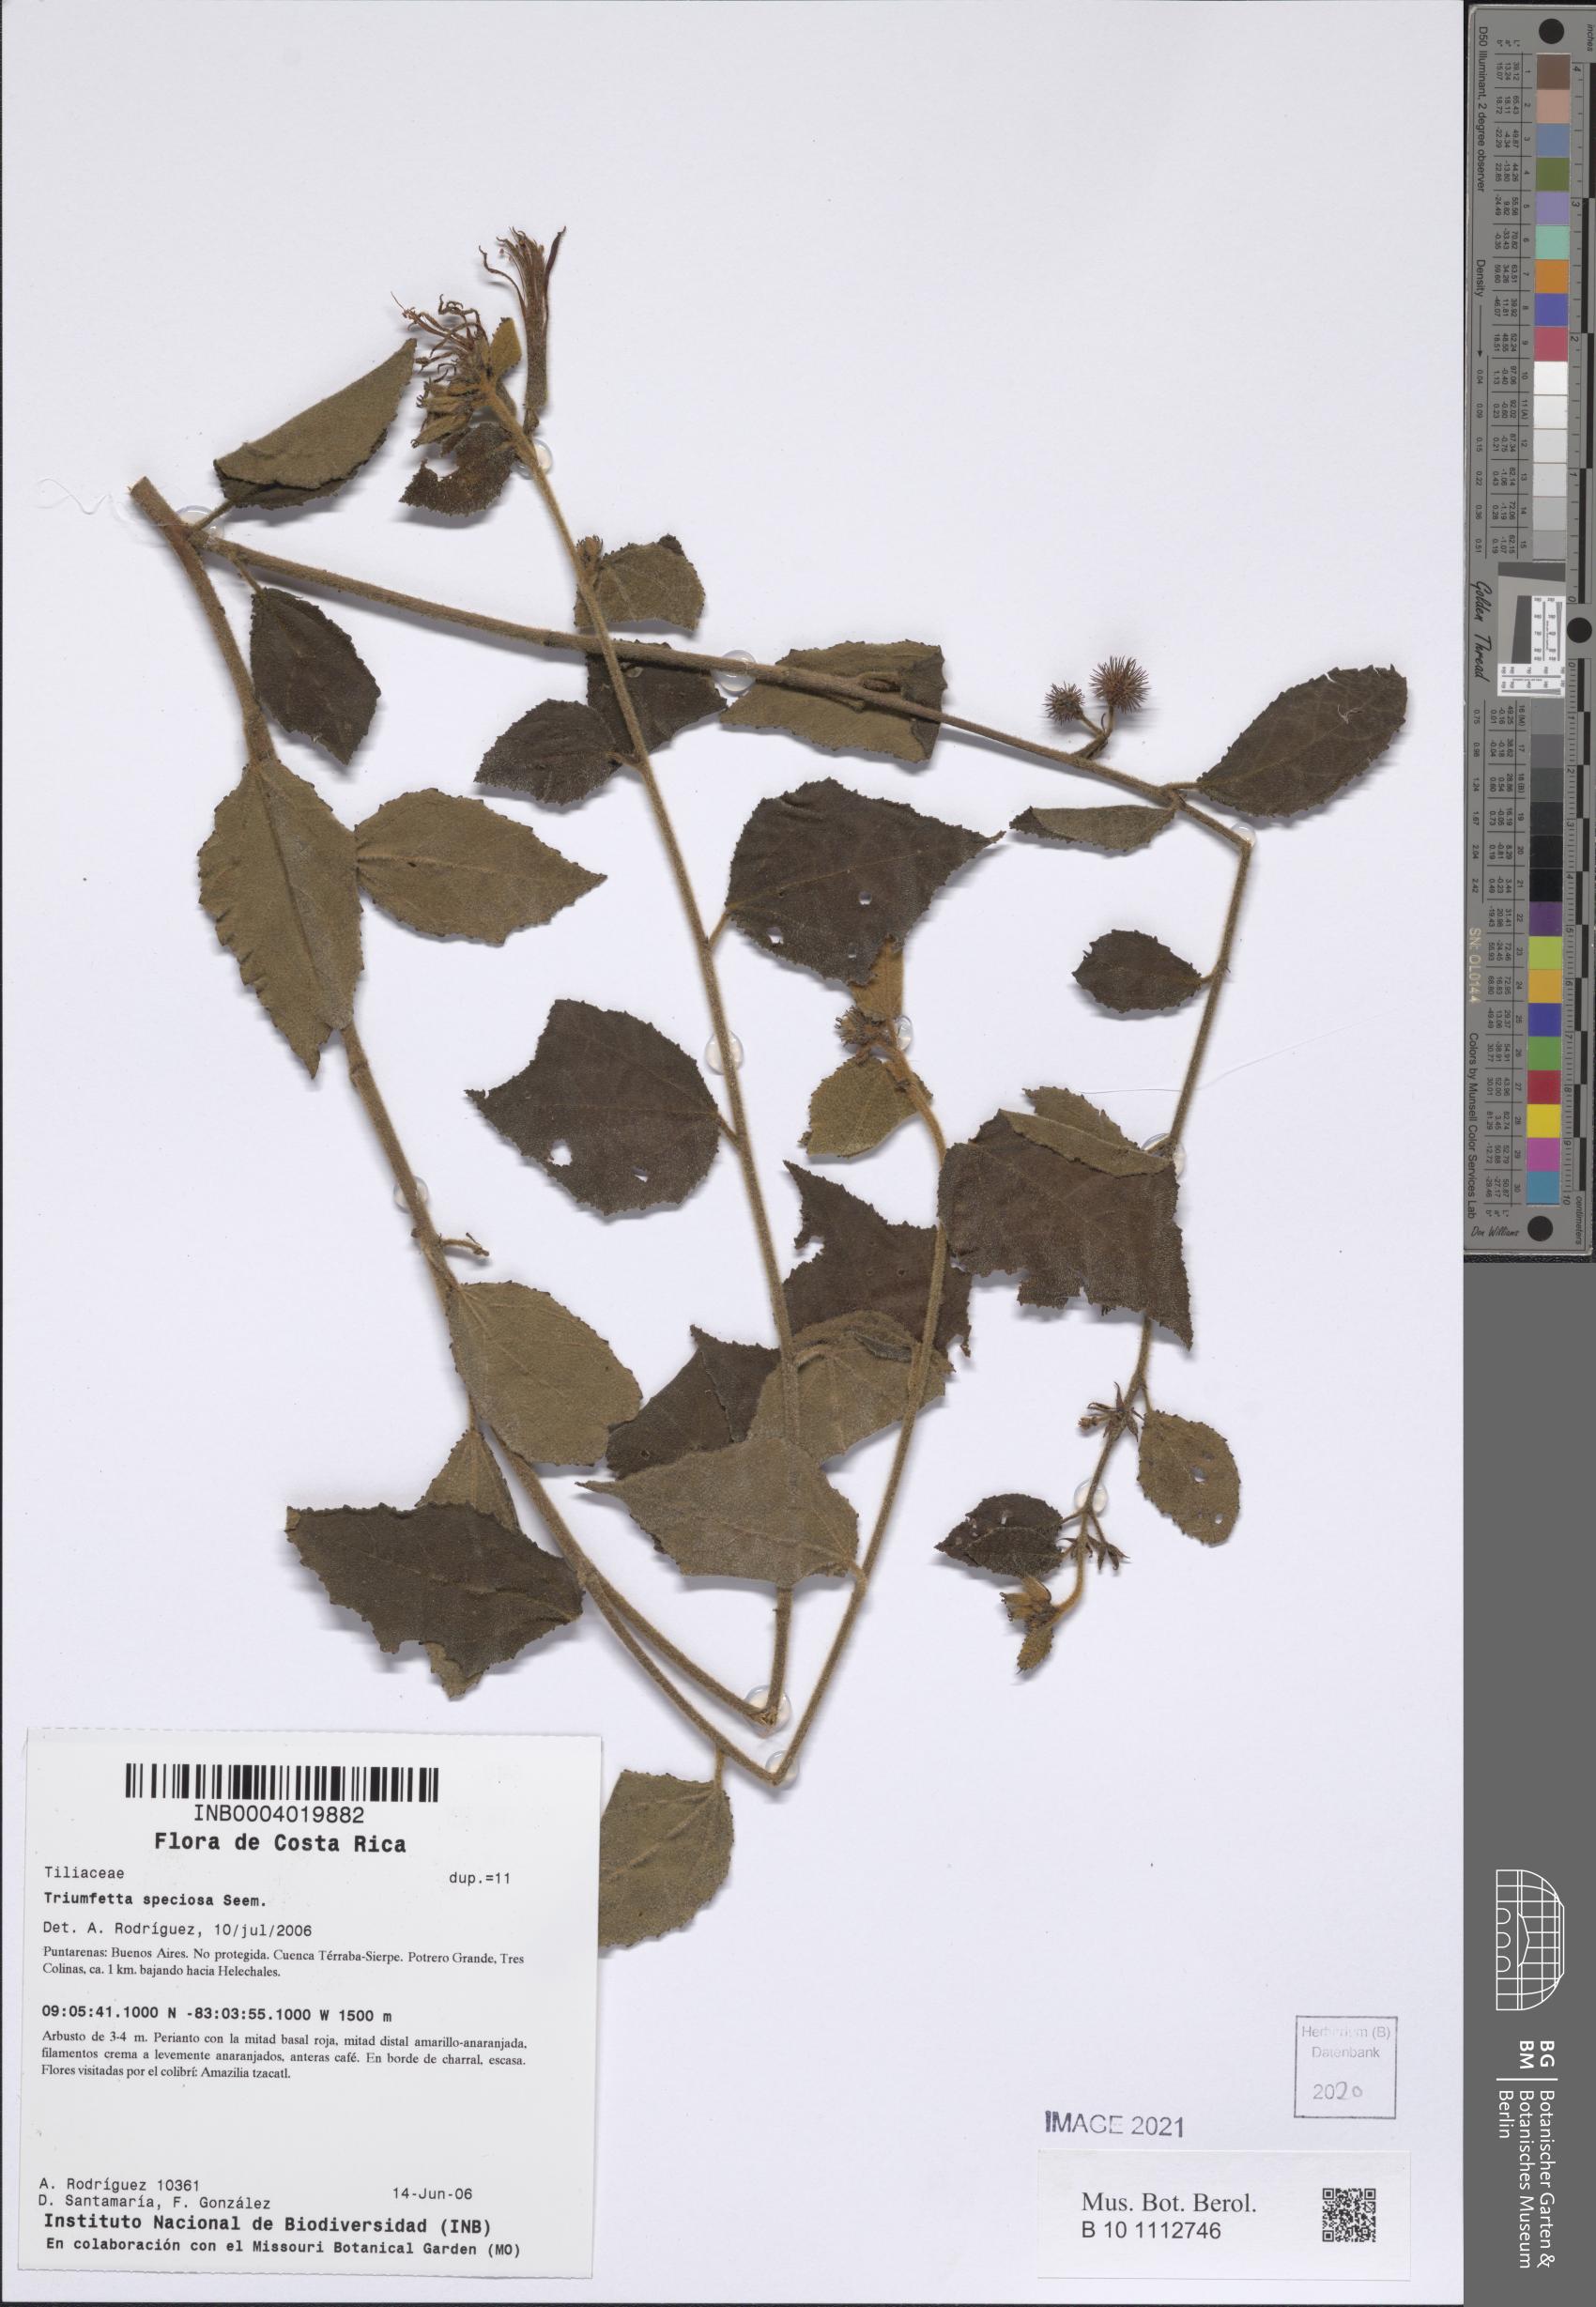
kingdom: Plantae
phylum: Tracheophyta
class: Magnoliopsida
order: Malvales
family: Malvaceae
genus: Triumfetta
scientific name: Triumfetta speciosa
